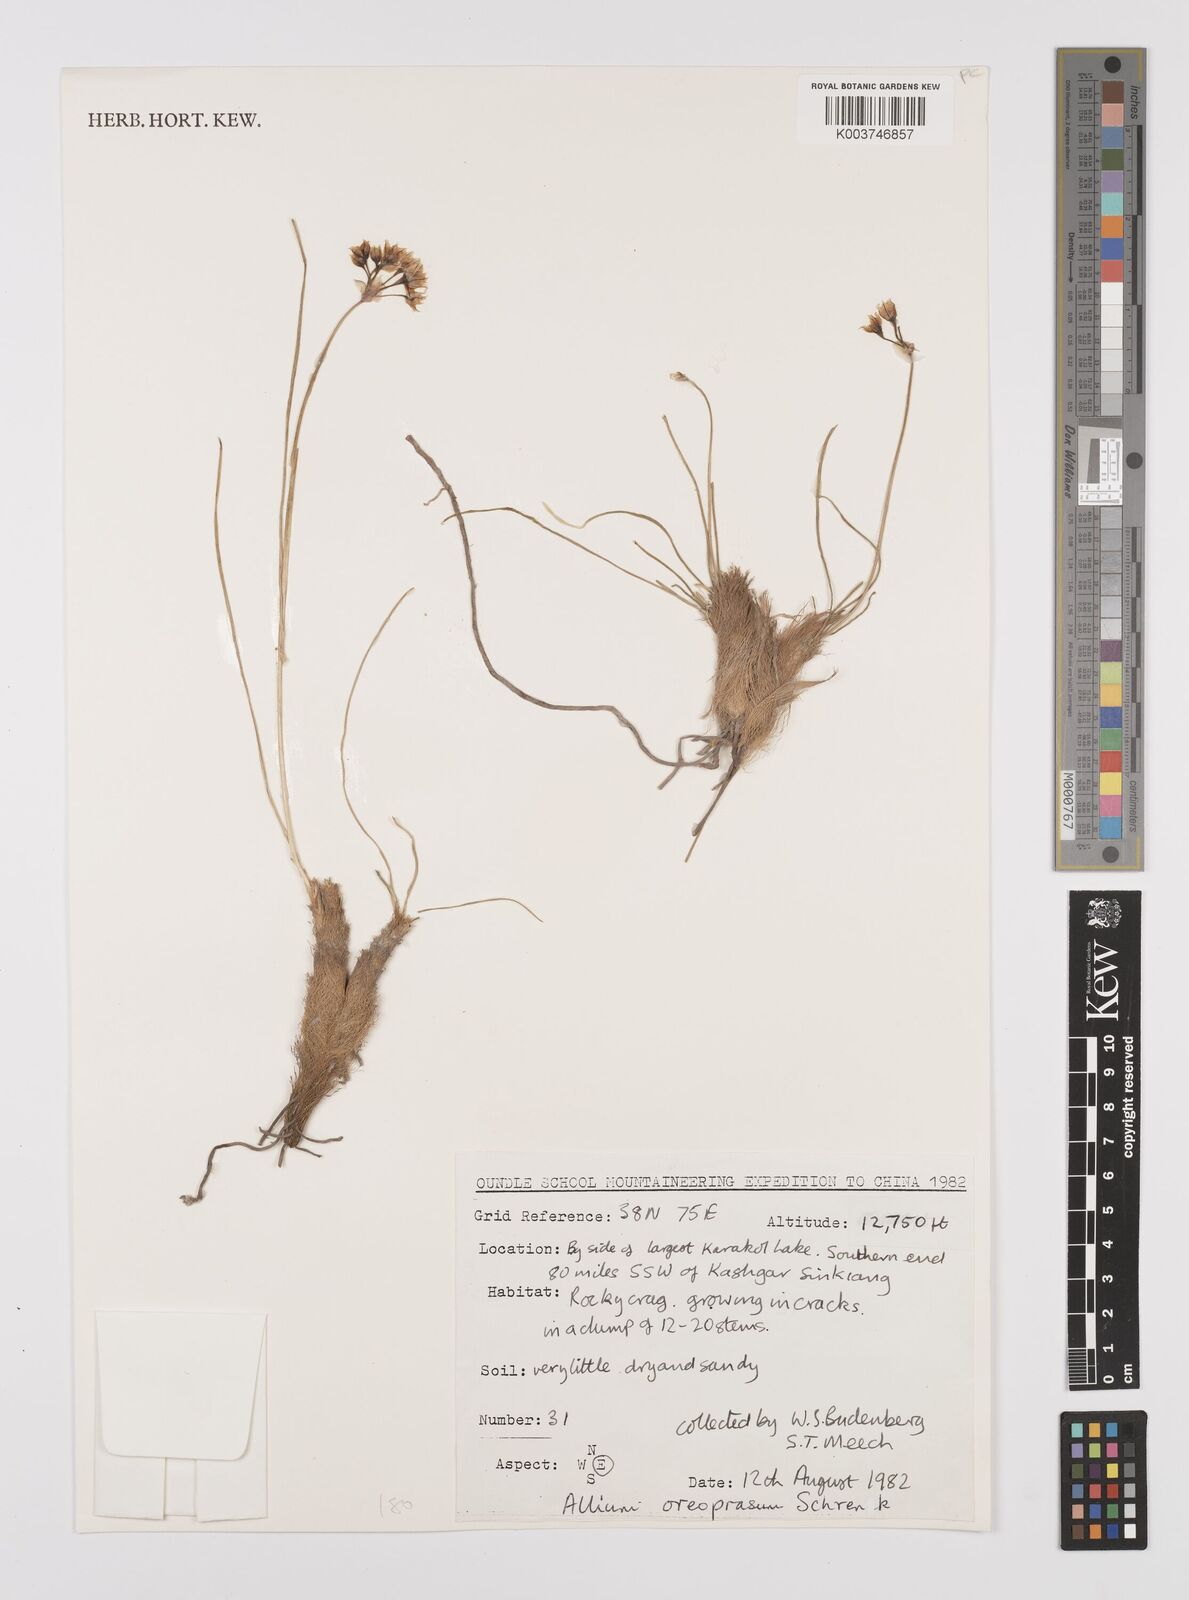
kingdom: Plantae
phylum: Tracheophyta
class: Liliopsida
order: Asparagales
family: Amaryllidaceae
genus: Allium
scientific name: Allium oreoprasum
